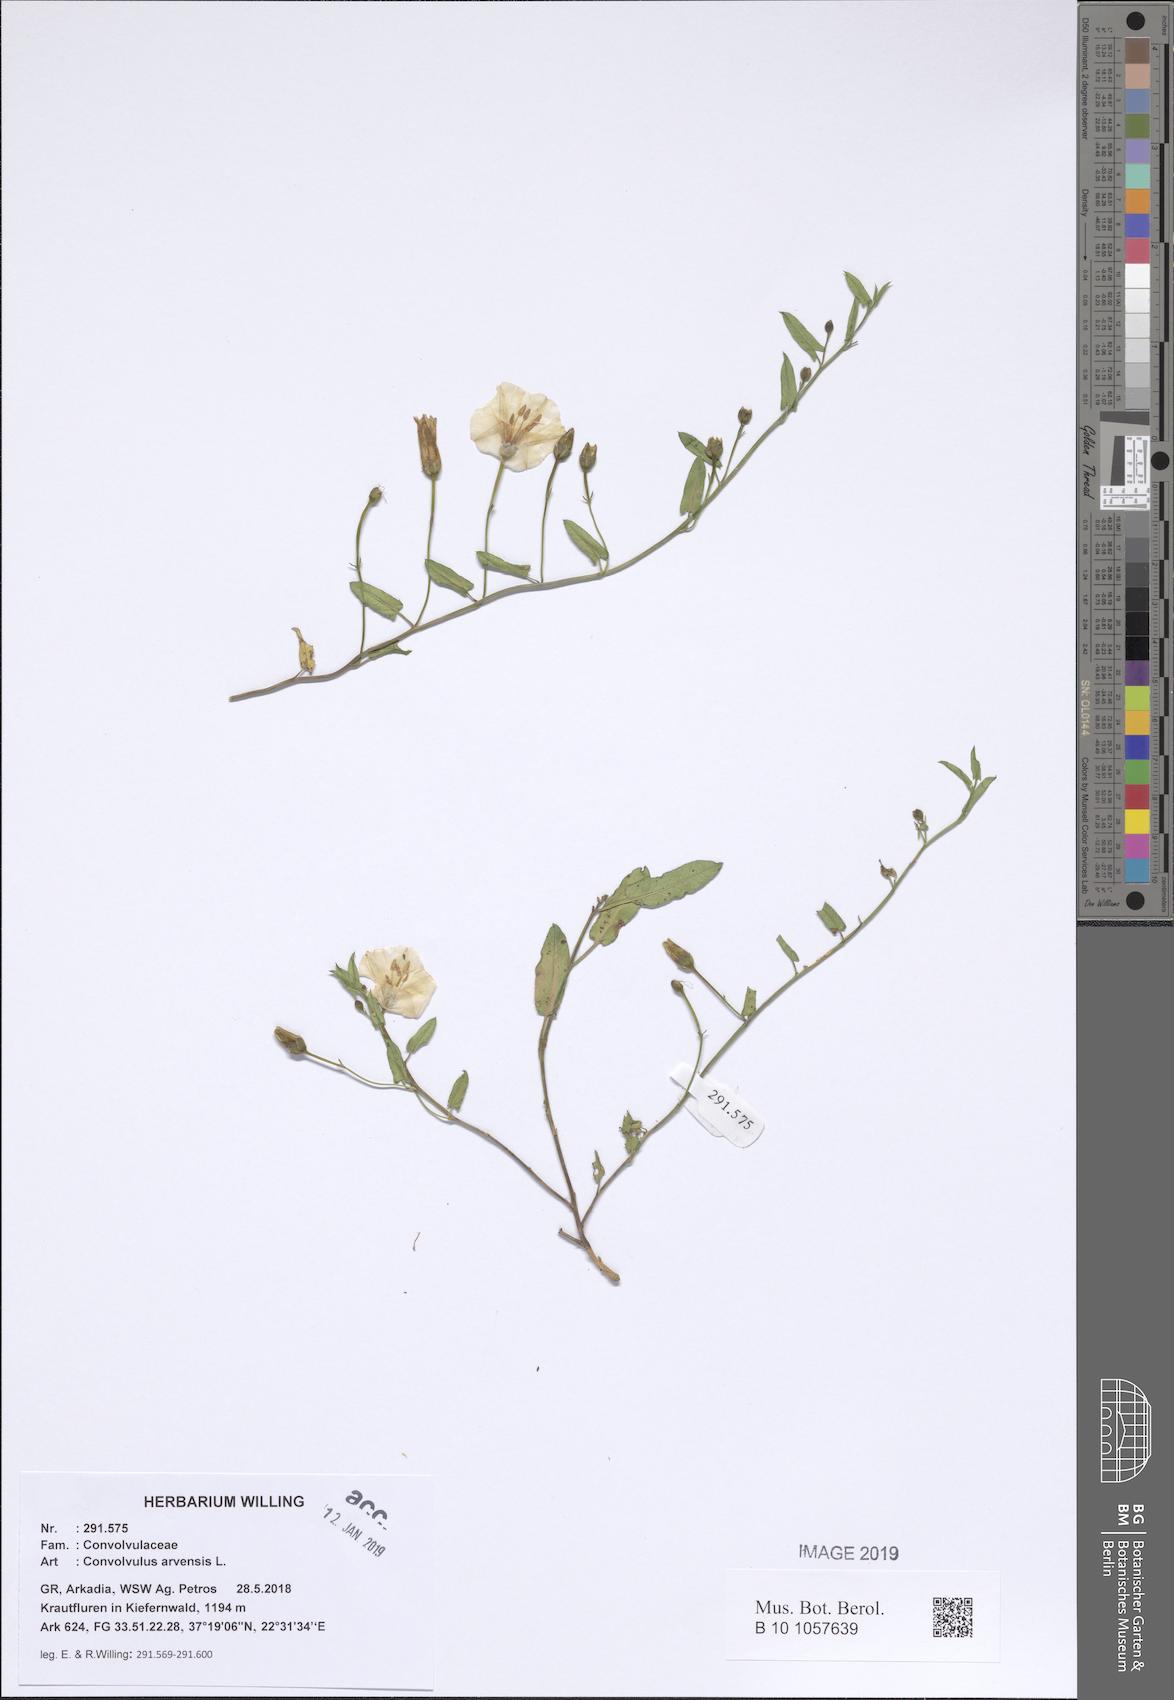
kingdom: Plantae
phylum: Tracheophyta
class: Magnoliopsida
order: Solanales
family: Convolvulaceae
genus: Convolvulus
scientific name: Convolvulus arvensis
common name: Field bindweed
